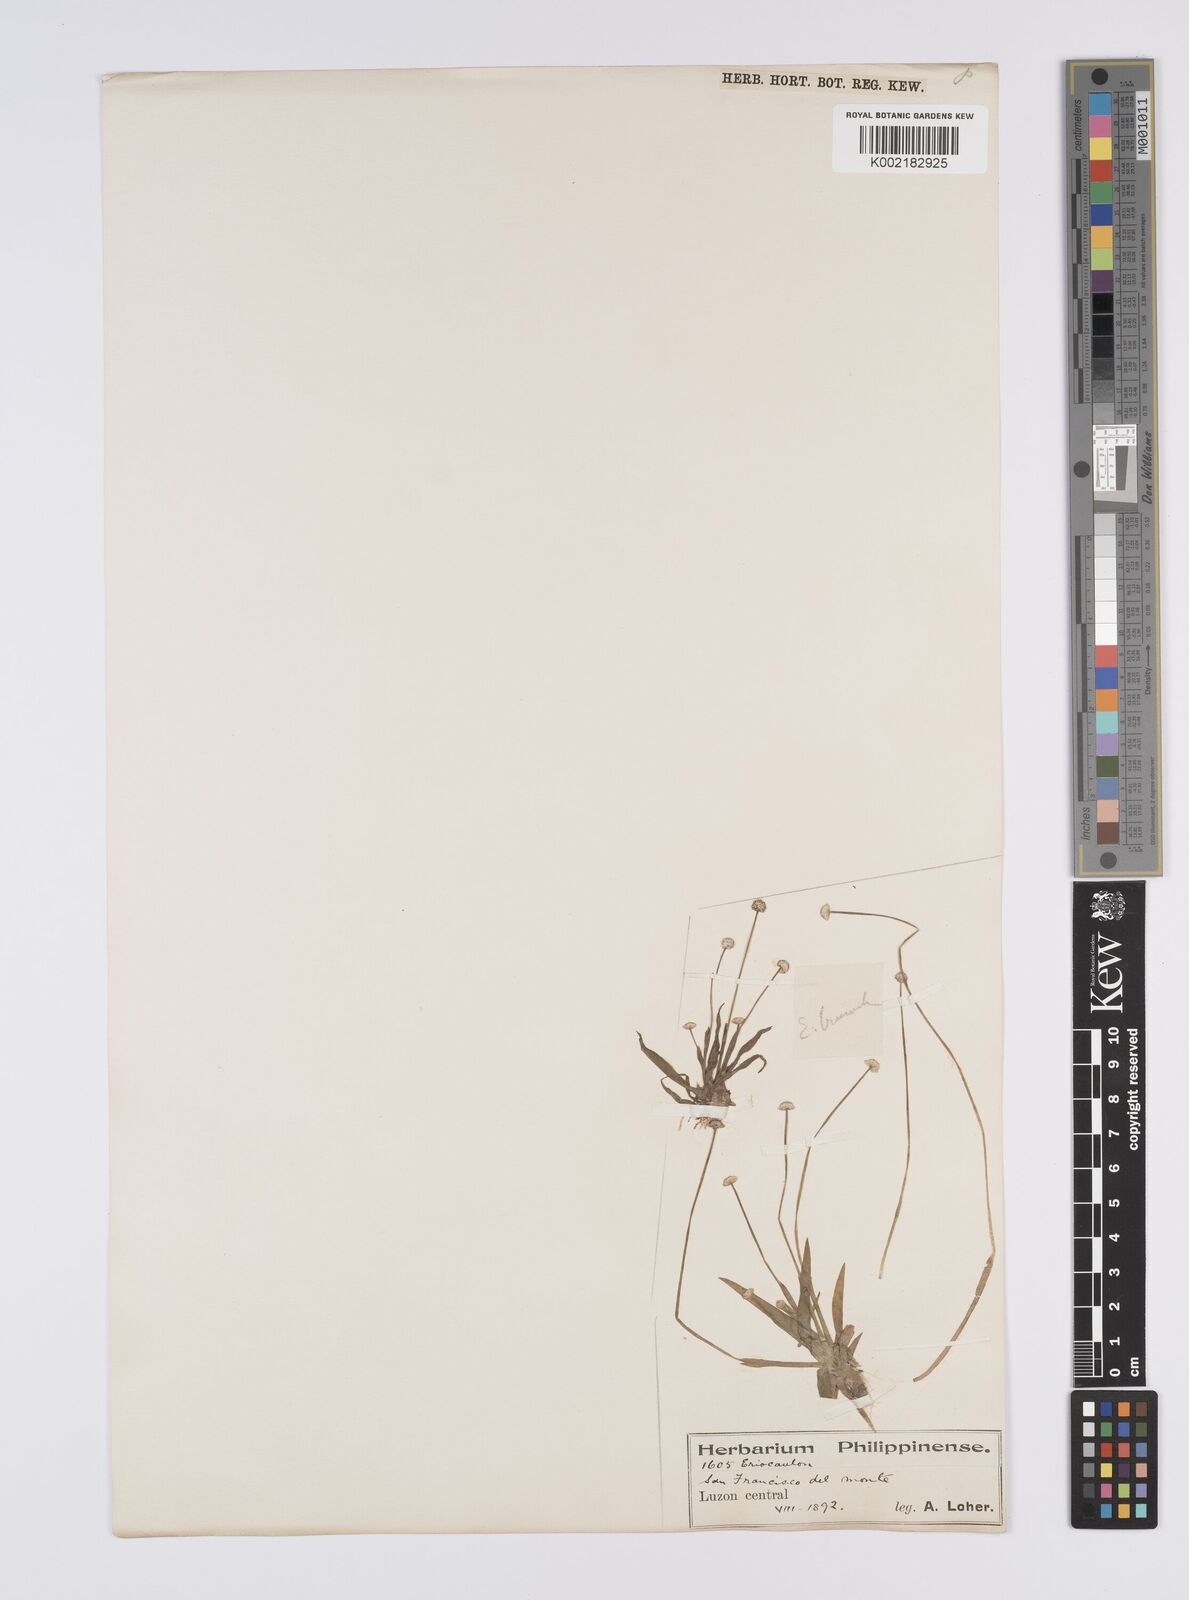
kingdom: Plantae
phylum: Tracheophyta
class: Liliopsida
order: Poales
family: Eriocaulaceae
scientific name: Eriocaulaceae
